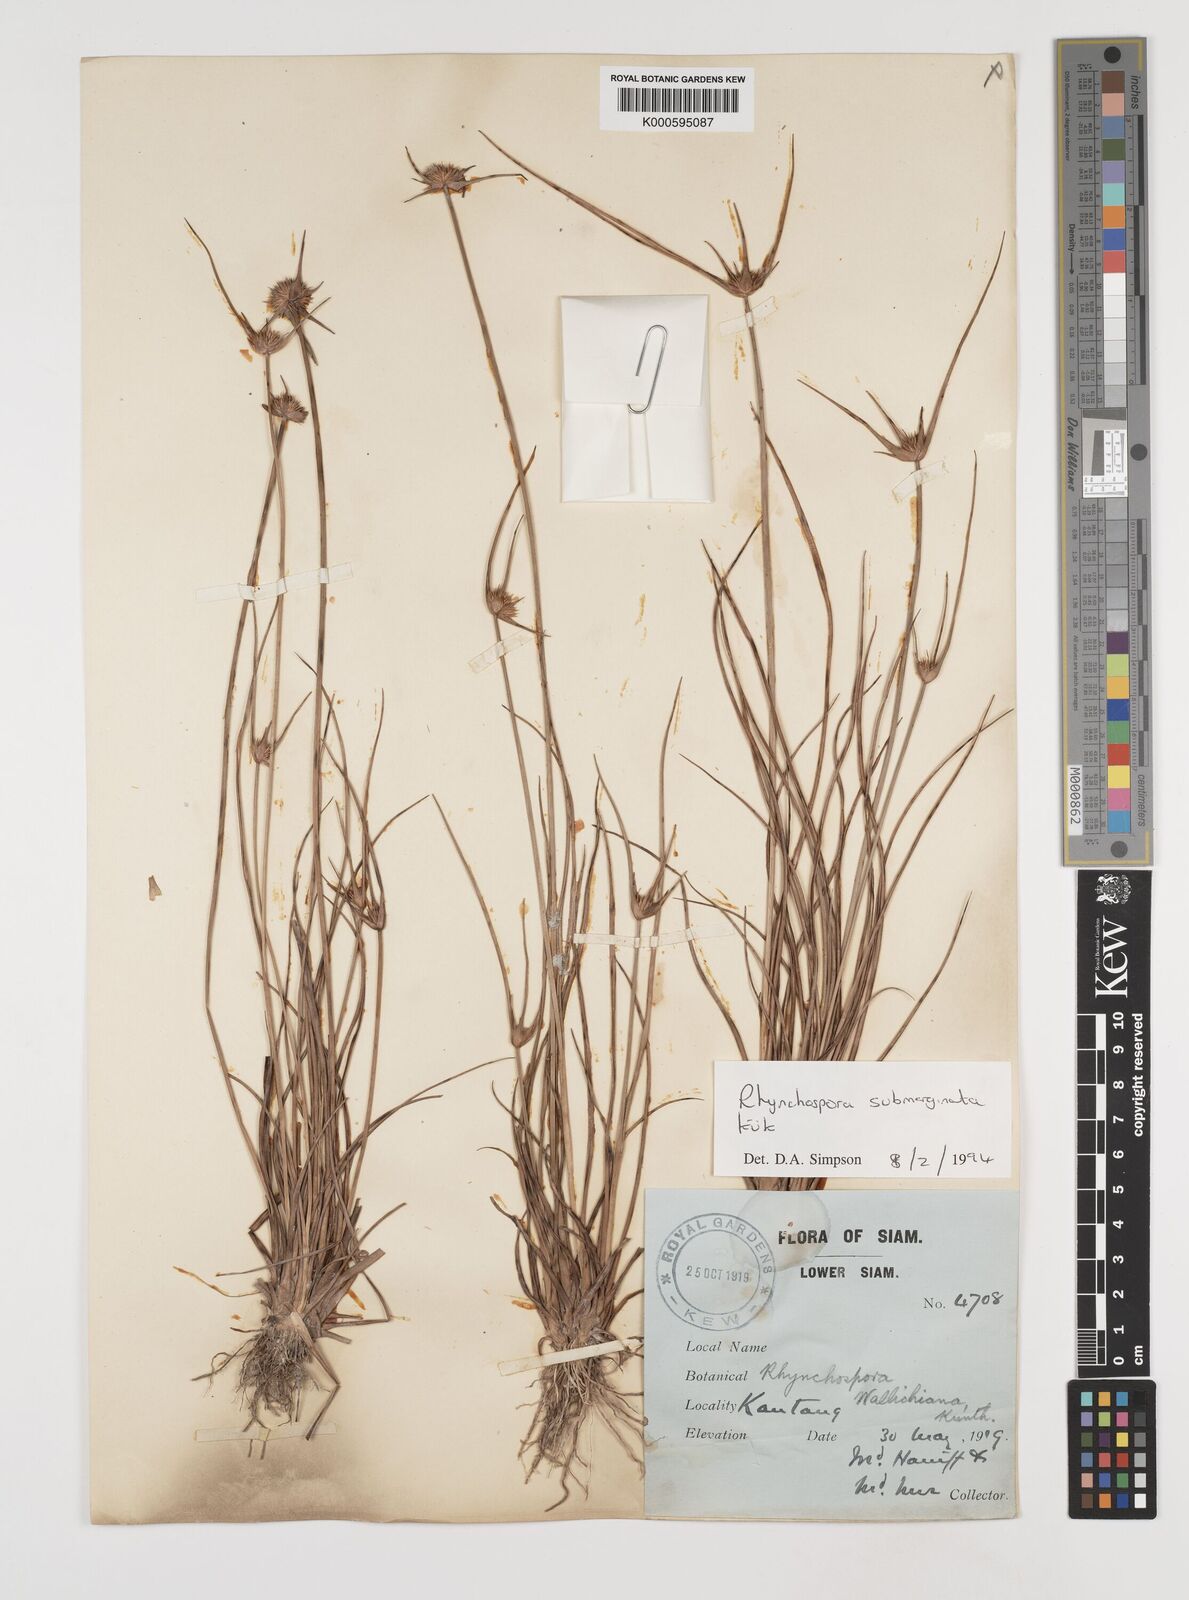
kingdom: Plantae
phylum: Tracheophyta
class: Liliopsida
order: Poales
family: Cyperaceae
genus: Rhynchospora
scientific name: Rhynchospora
